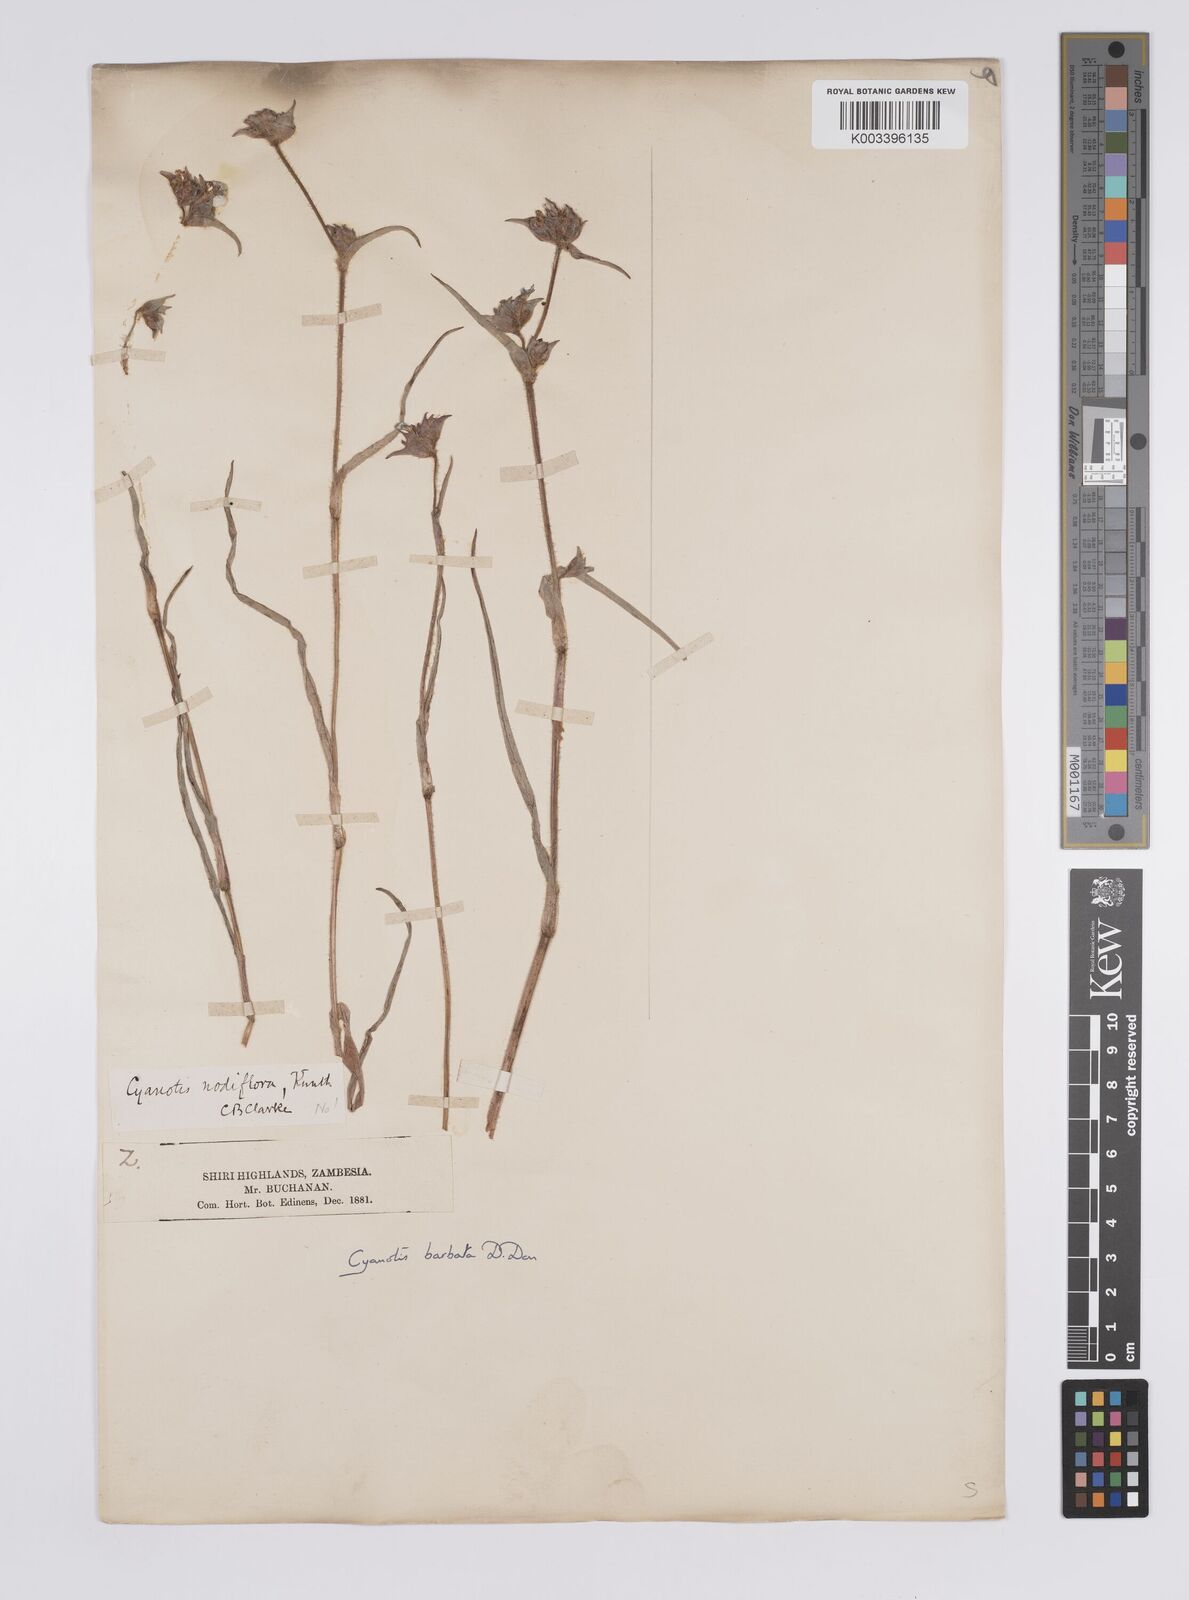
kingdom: Plantae
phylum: Tracheophyta
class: Liliopsida
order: Commelinales
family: Commelinaceae
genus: Cyanotis
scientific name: Cyanotis vaga
